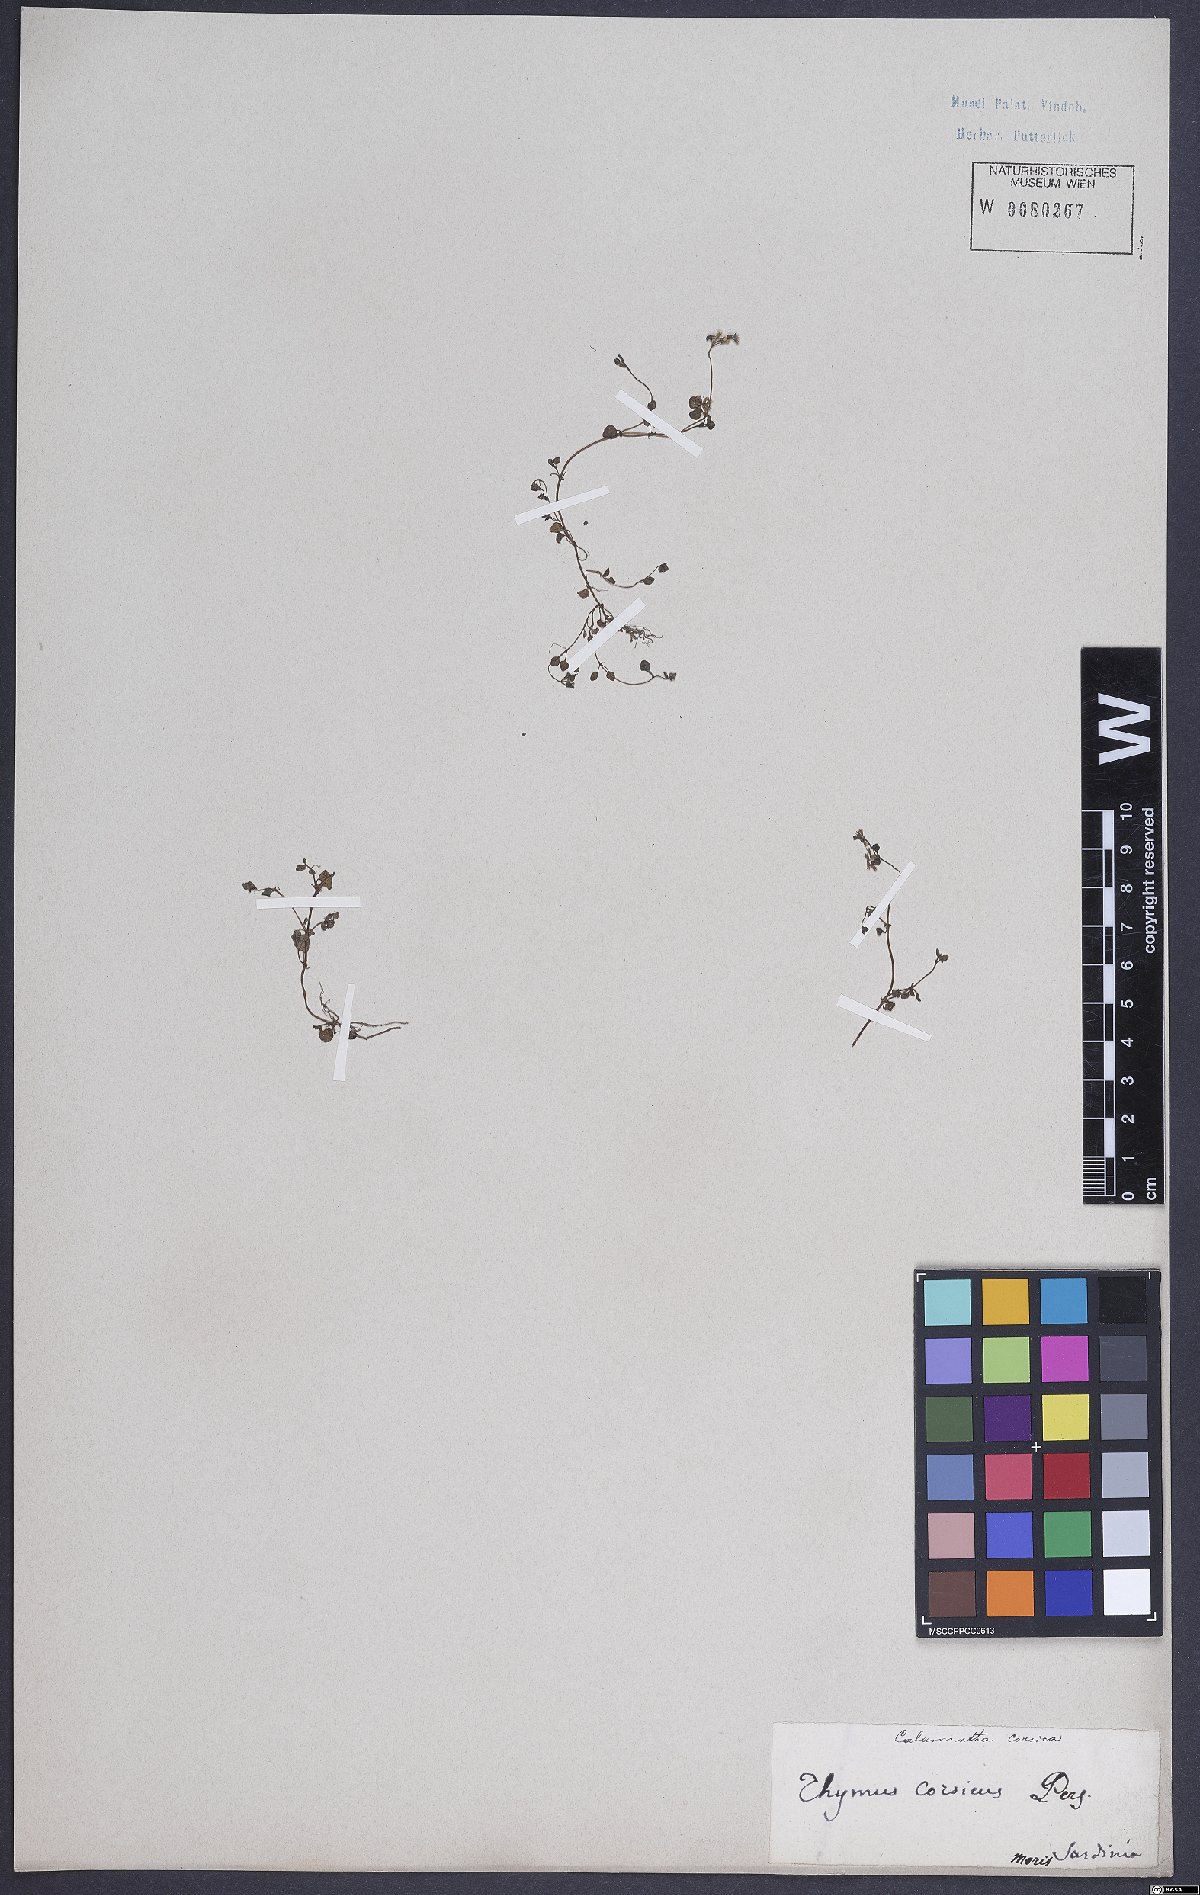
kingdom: Plantae
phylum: Tracheophyta
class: Magnoliopsida
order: Lamiales
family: Lamiaceae
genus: Calamintha
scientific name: Calamintha
